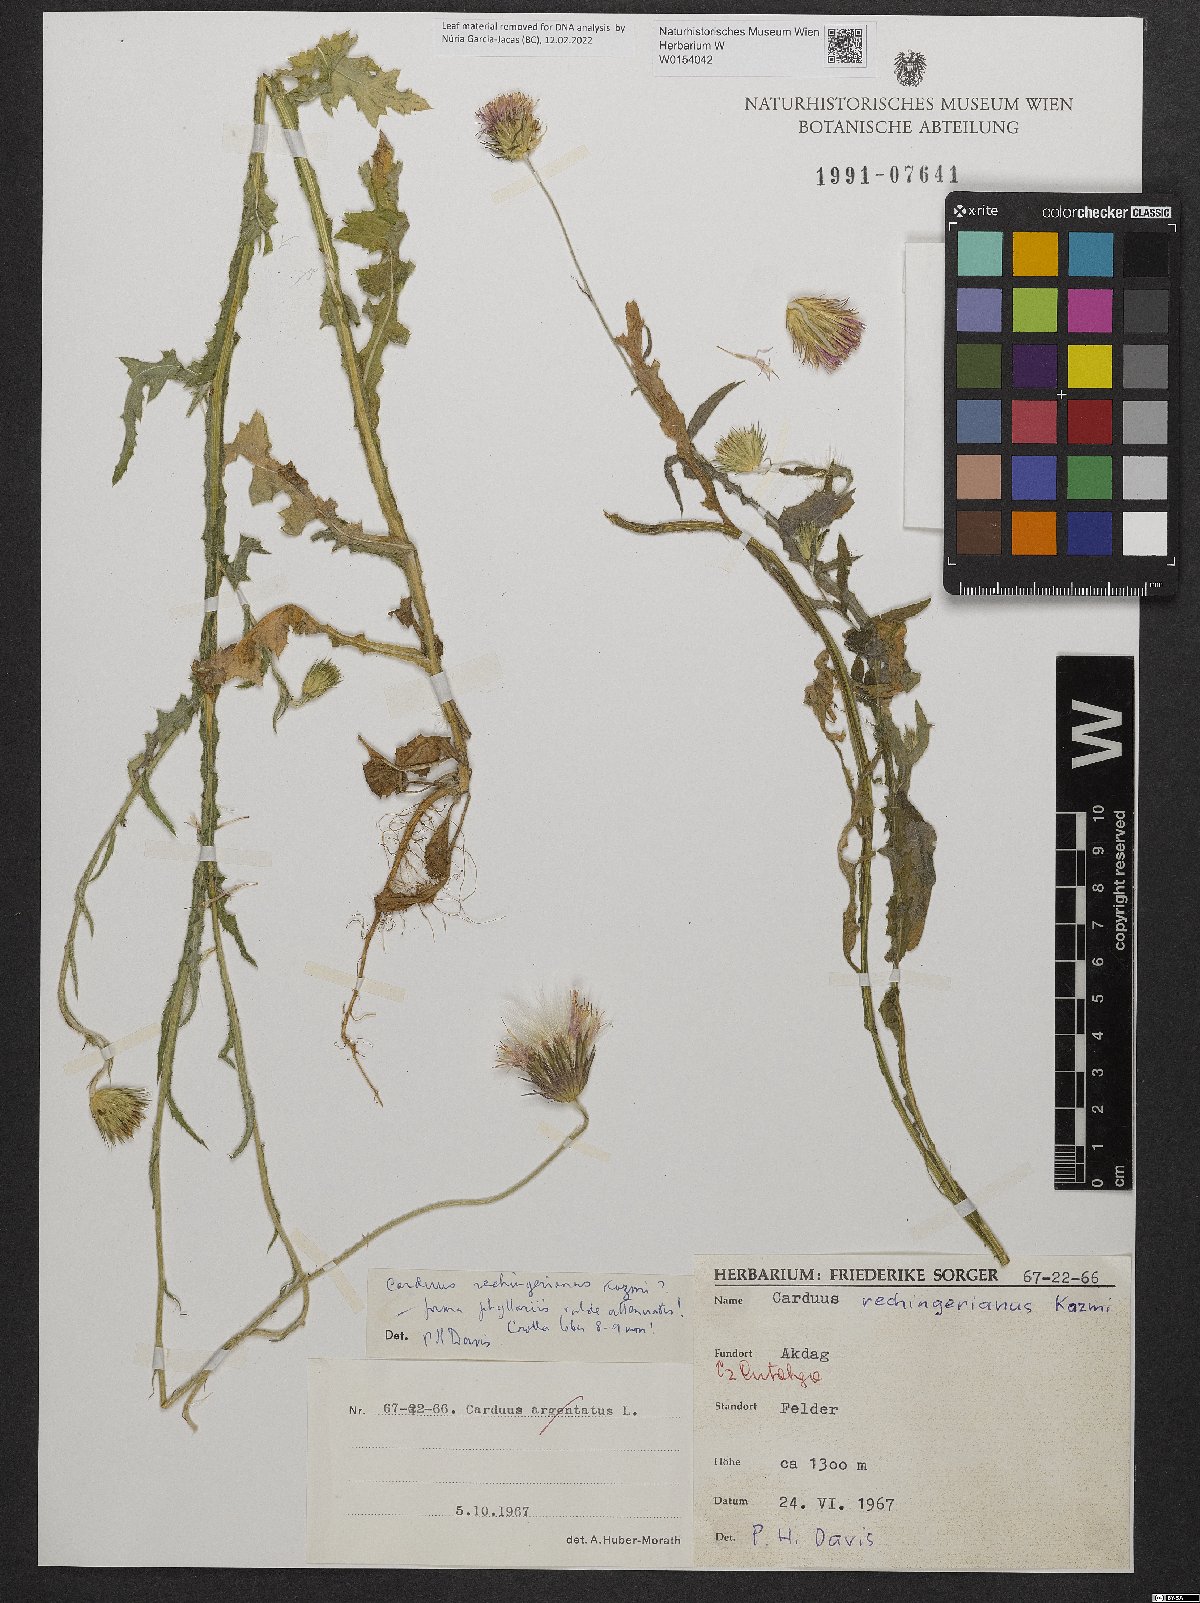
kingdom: Plantae
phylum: Tracheophyta
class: Magnoliopsida
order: Asterales
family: Asteraceae
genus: Carduus
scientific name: Carduus rechingerianus
